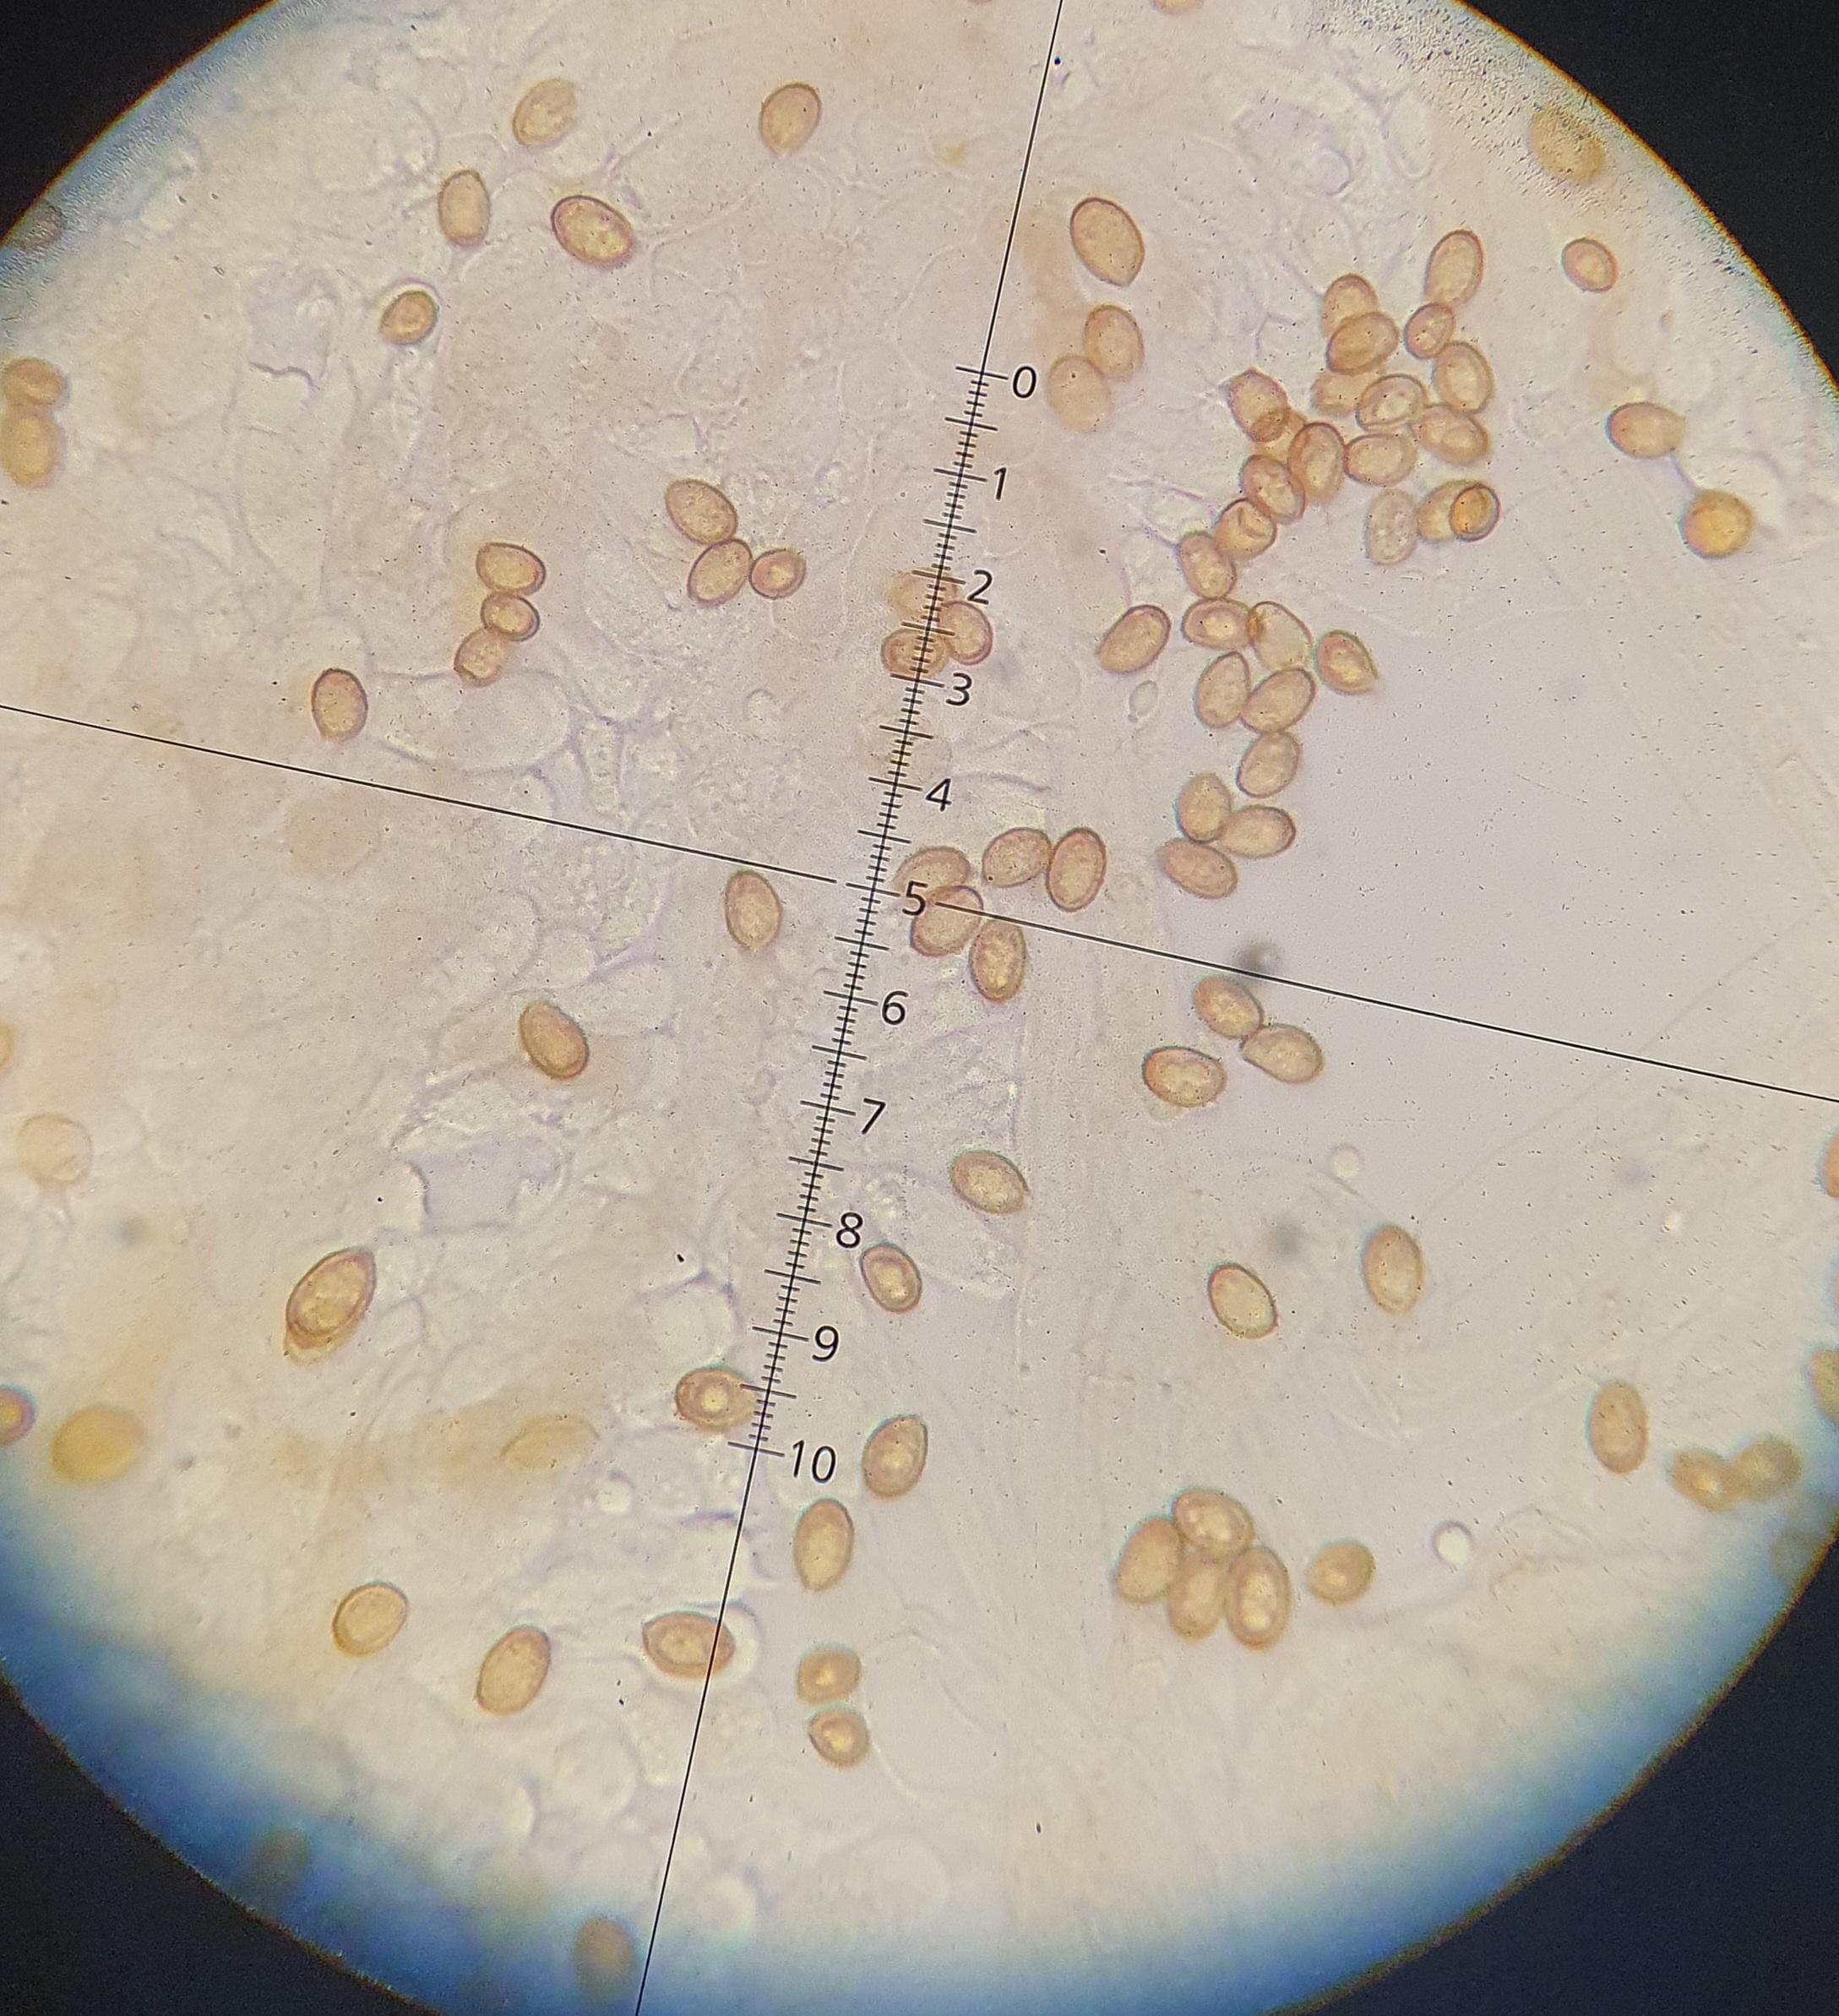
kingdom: Fungi
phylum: Basidiomycota
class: Agaricomycetes
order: Agaricales
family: Cortinariaceae
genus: Cortinarius
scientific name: Cortinarius nucicolor
